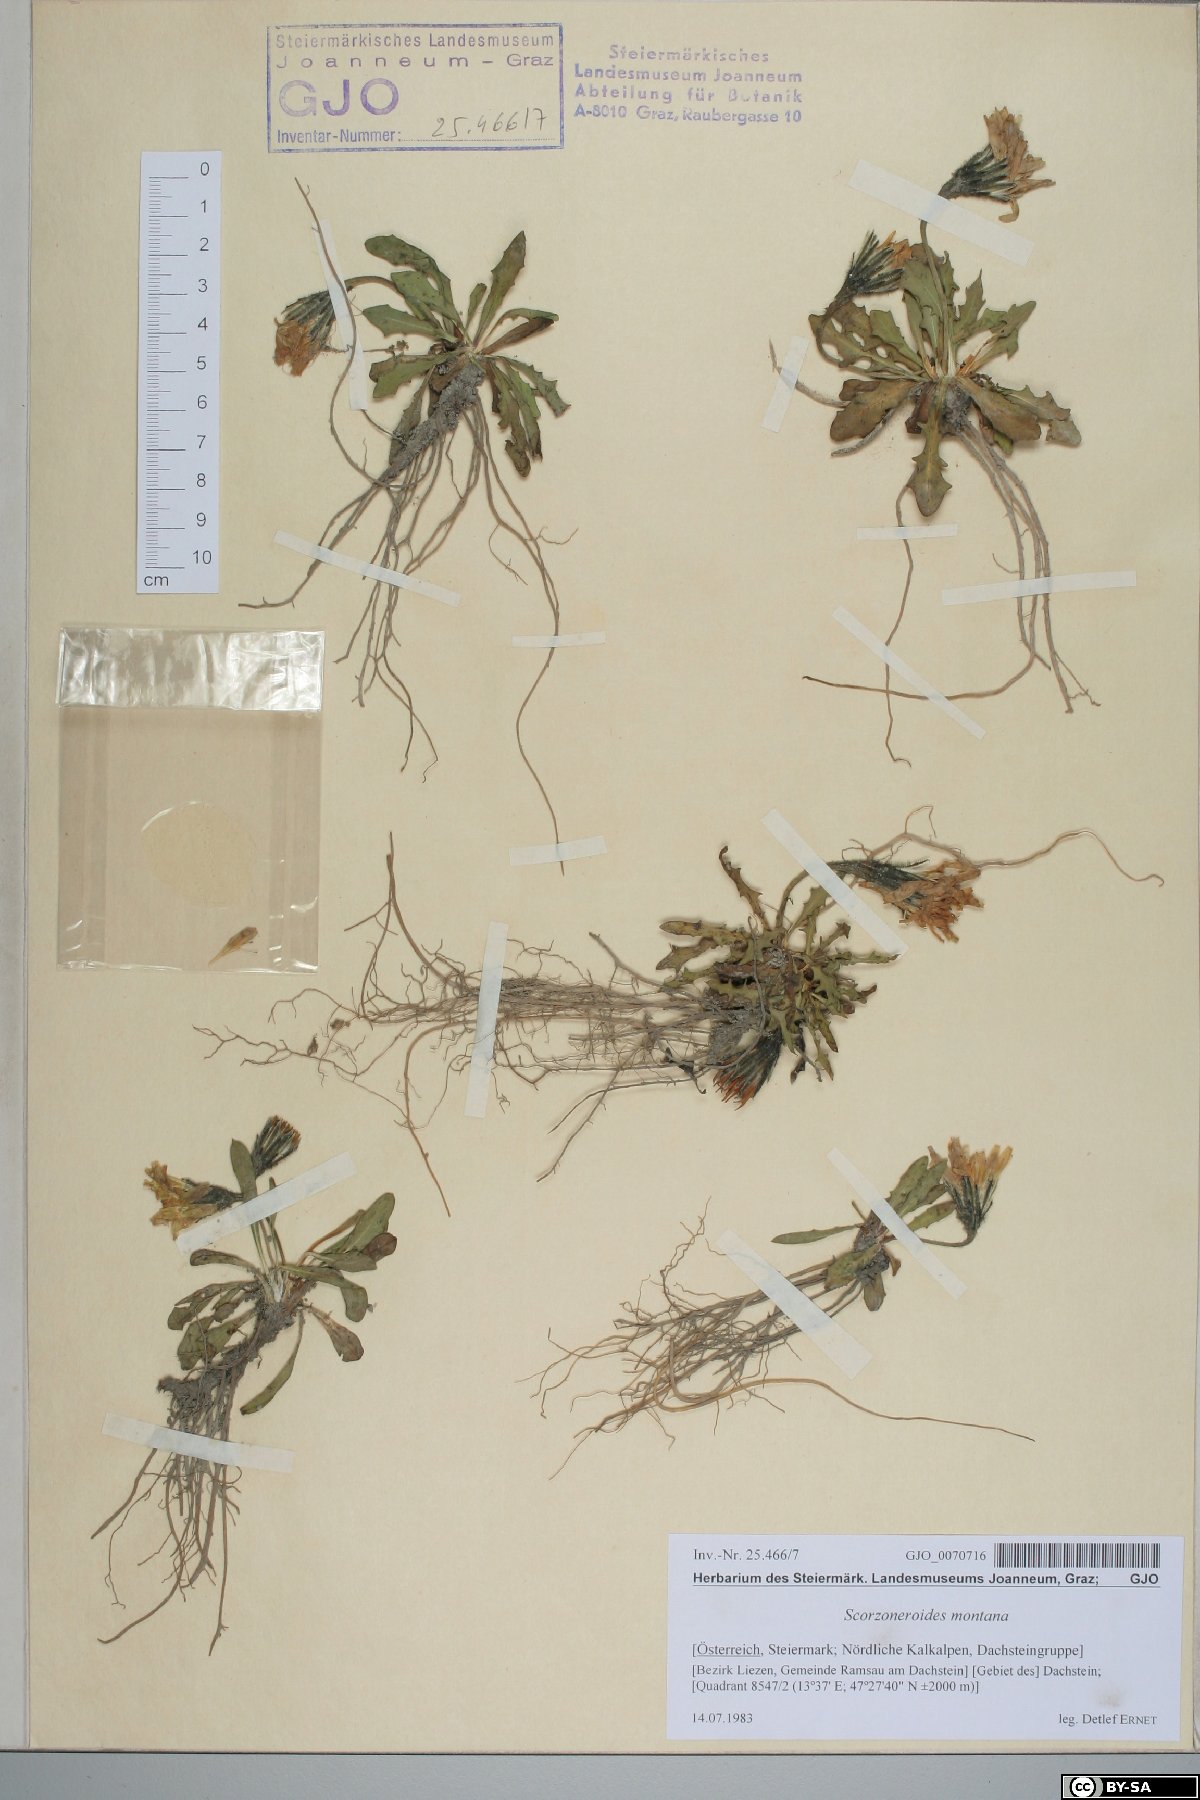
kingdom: Plantae
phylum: Tracheophyta
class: Magnoliopsida
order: Asterales
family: Asteraceae
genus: Scorzoneroides
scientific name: Scorzoneroides montana
